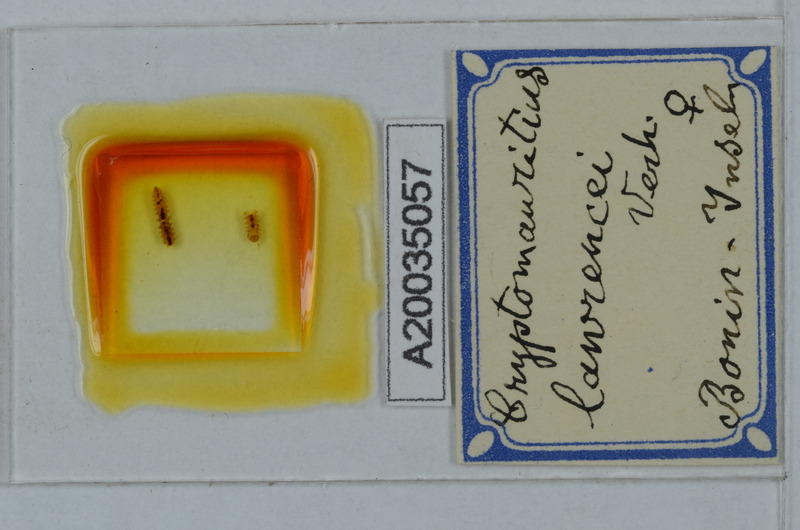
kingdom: Animalia
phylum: Arthropoda
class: Diplopoda
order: Polydesmida
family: Cryptodesmidae
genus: Cryptodesmus
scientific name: Cryptodesmus
